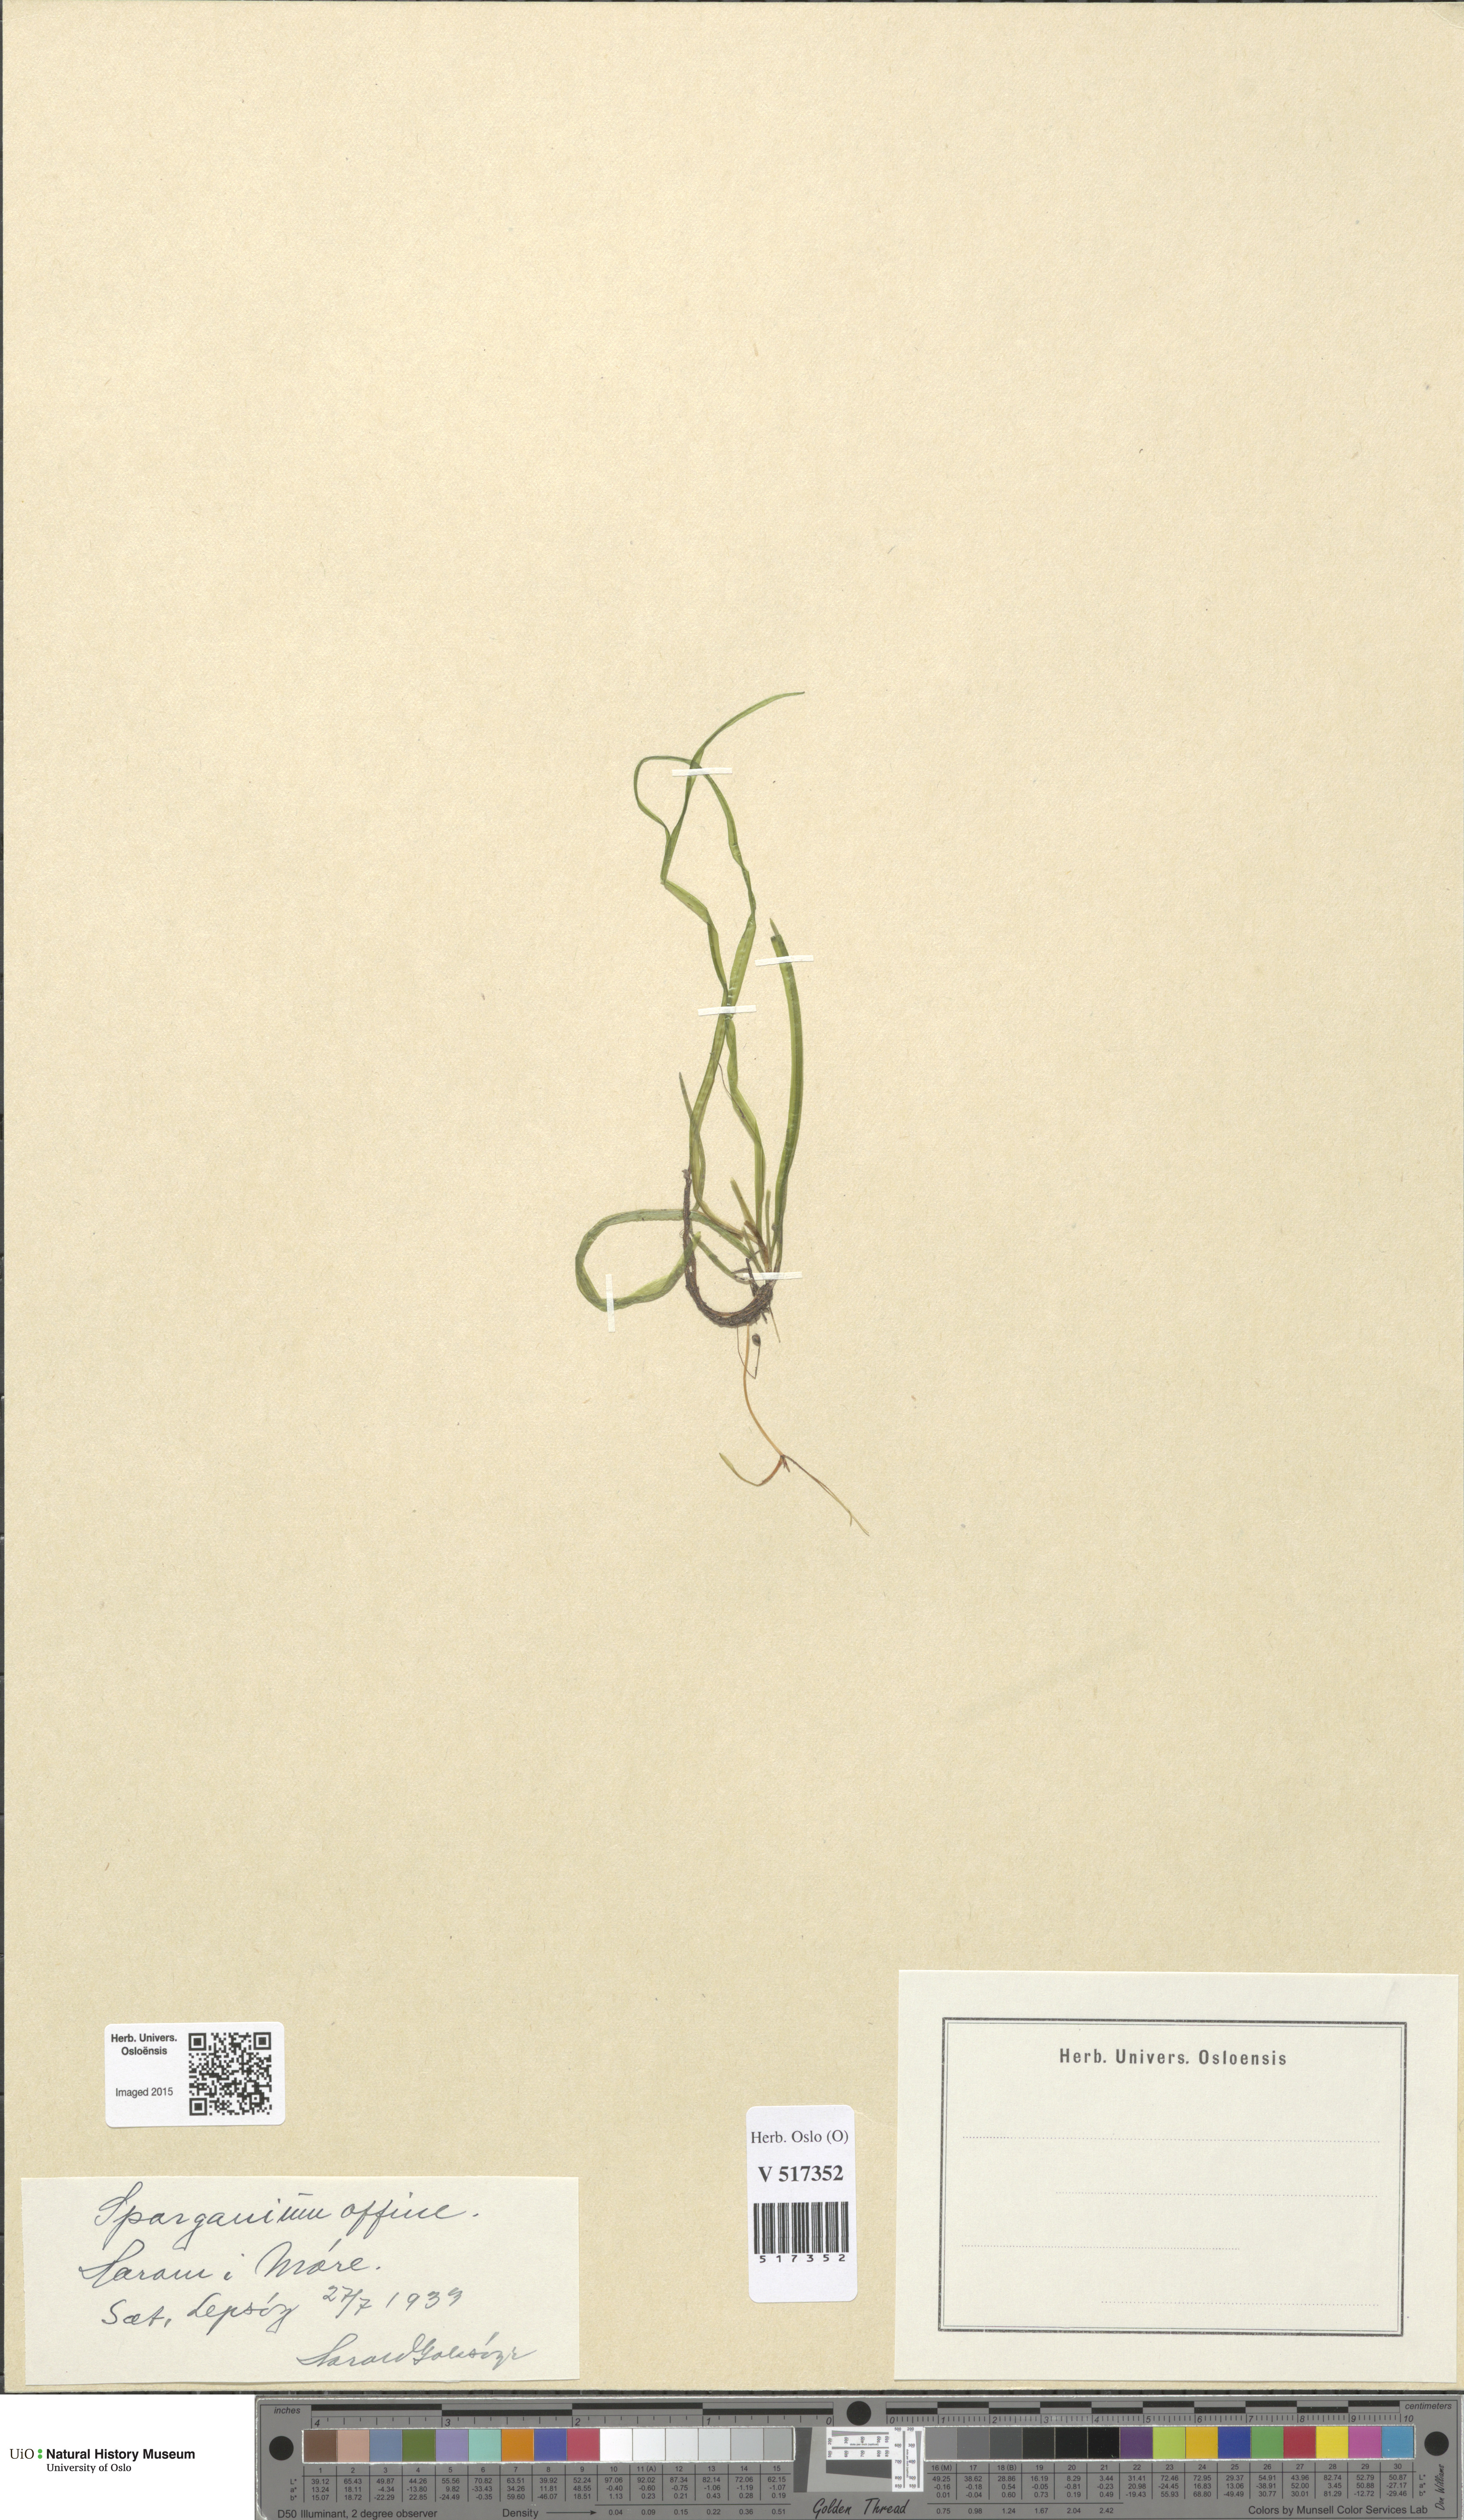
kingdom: Plantae
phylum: Tracheophyta
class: Liliopsida
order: Poales
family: Typhaceae
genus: Sparganium
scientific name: Sparganium angustifolium
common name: Floating bur-reed
